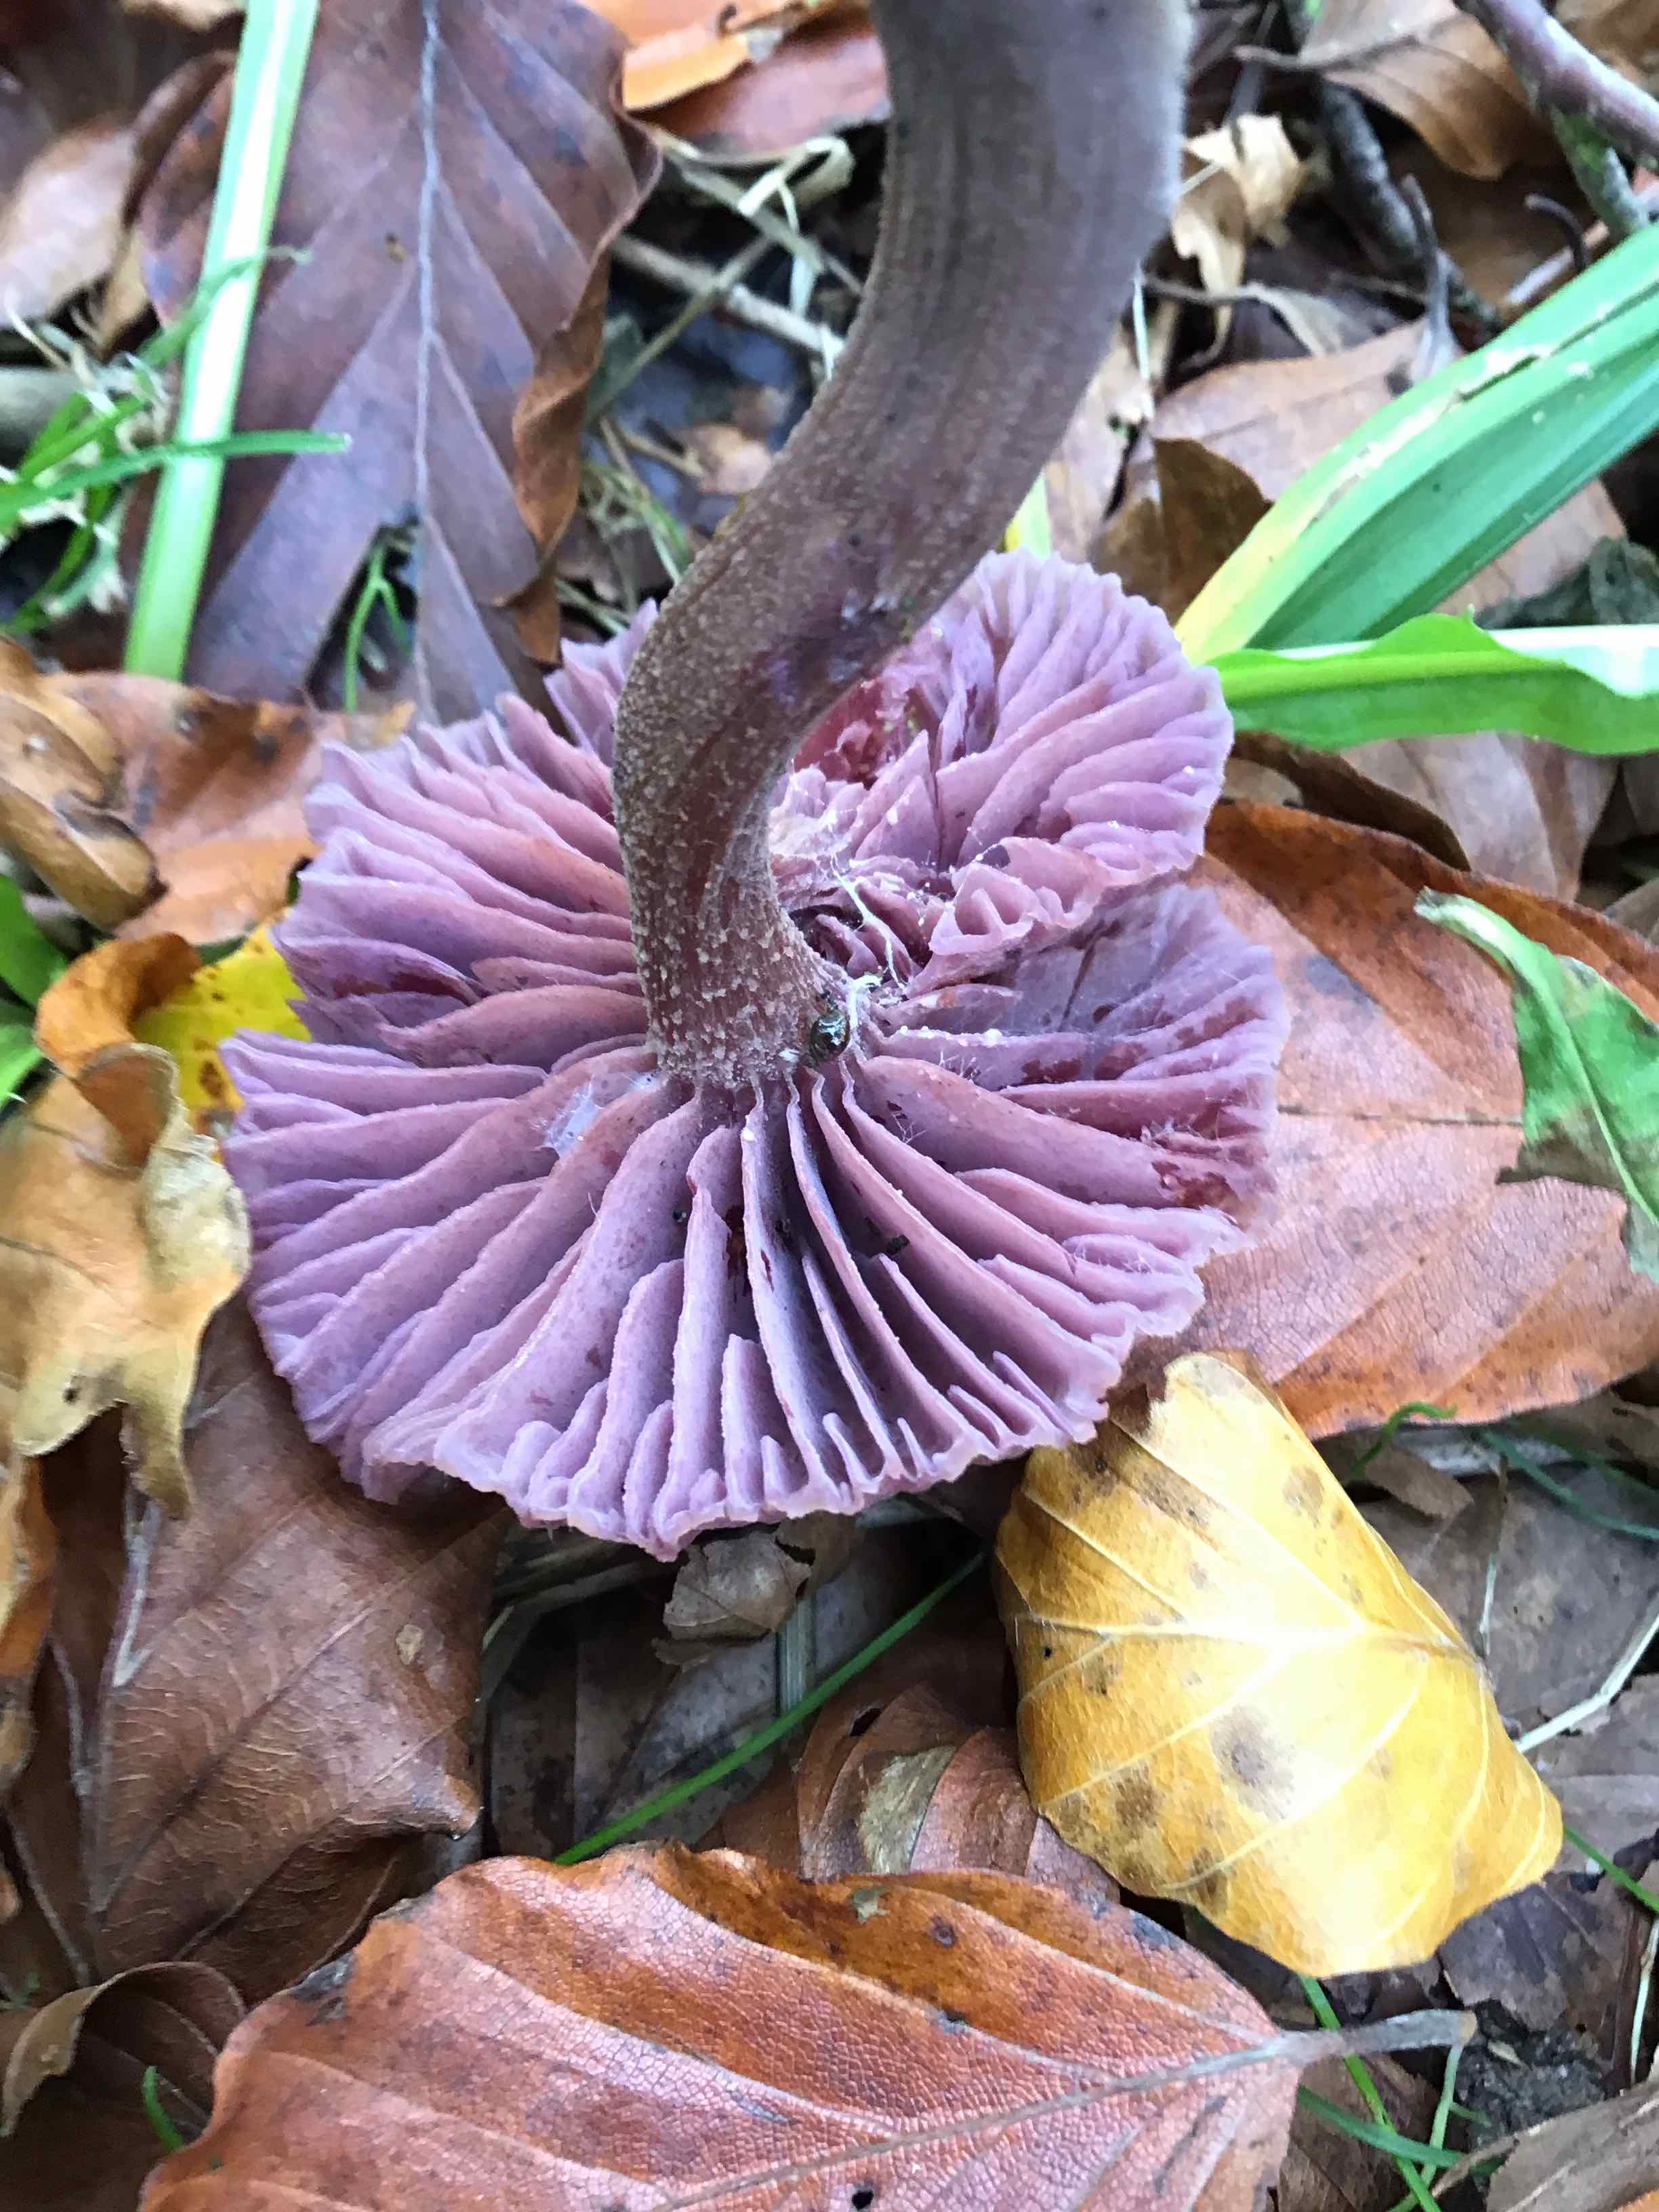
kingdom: Fungi
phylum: Basidiomycota
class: Agaricomycetes
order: Agaricales
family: Hydnangiaceae
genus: Laccaria
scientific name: Laccaria amethystina
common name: violet ametysthat
